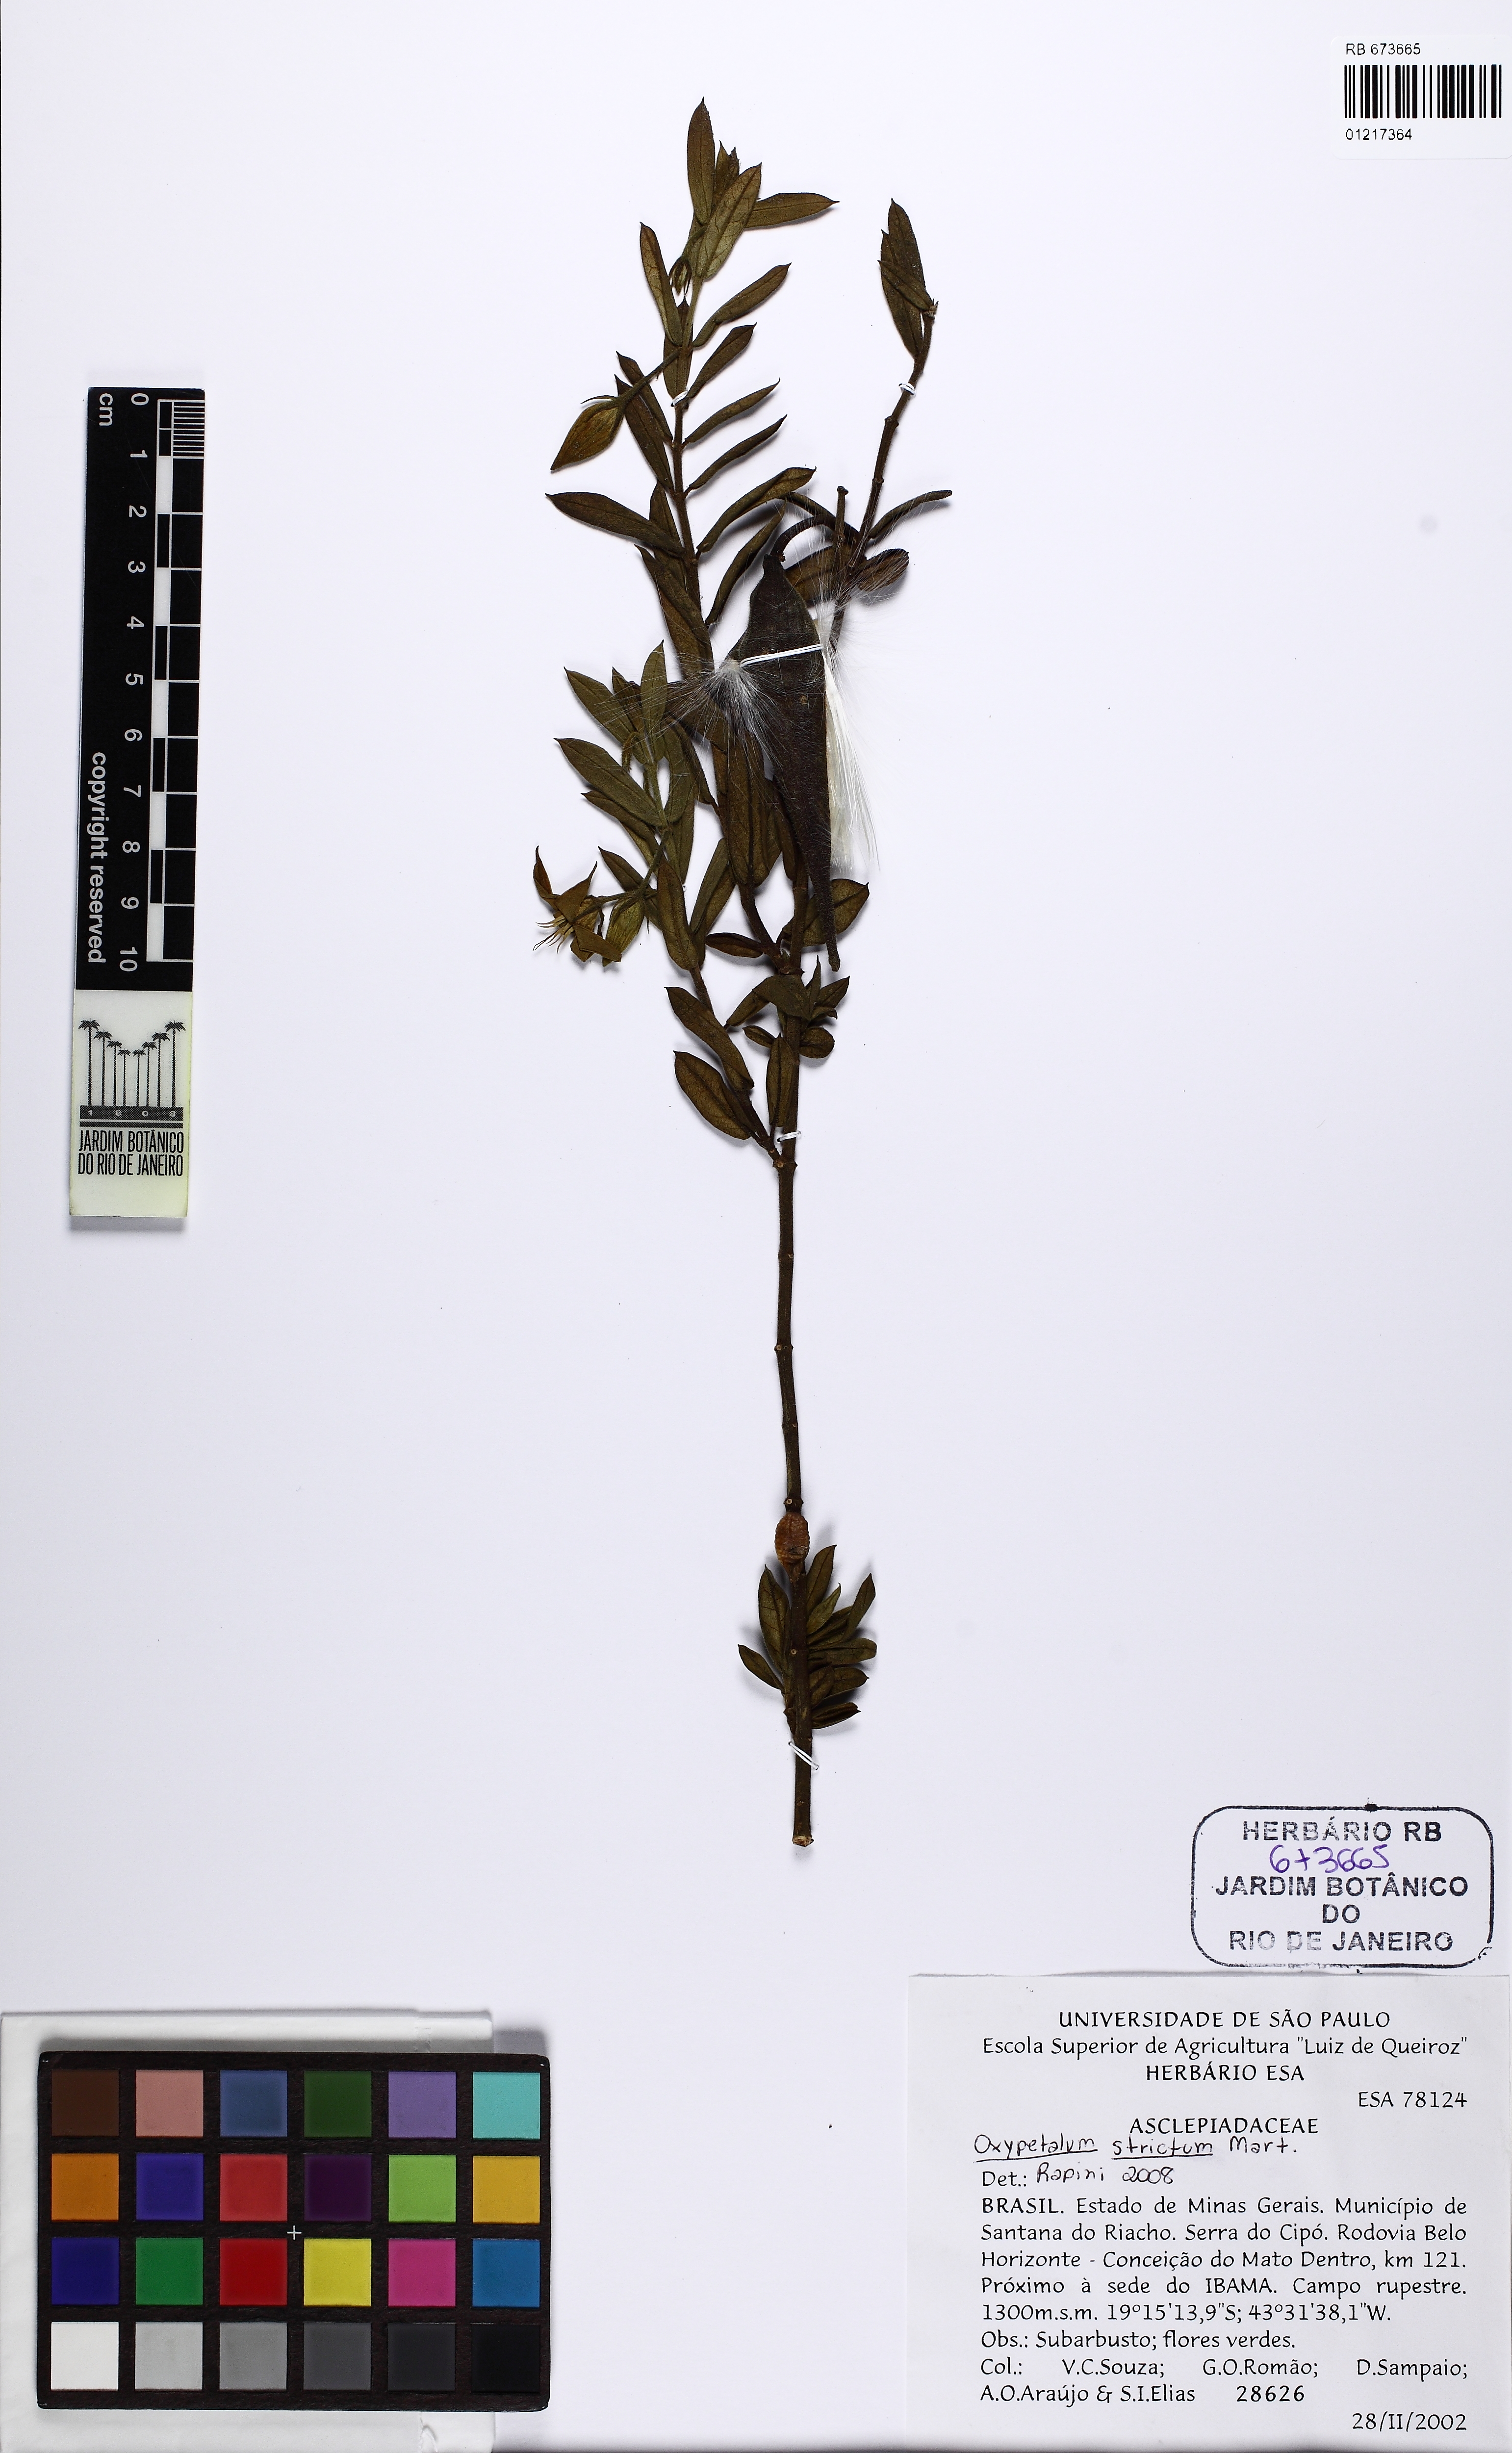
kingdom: Plantae
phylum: Tracheophyta
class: Magnoliopsida
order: Gentianales
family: Apocynaceae
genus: Oxypetalum
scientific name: Oxypetalum strictum
